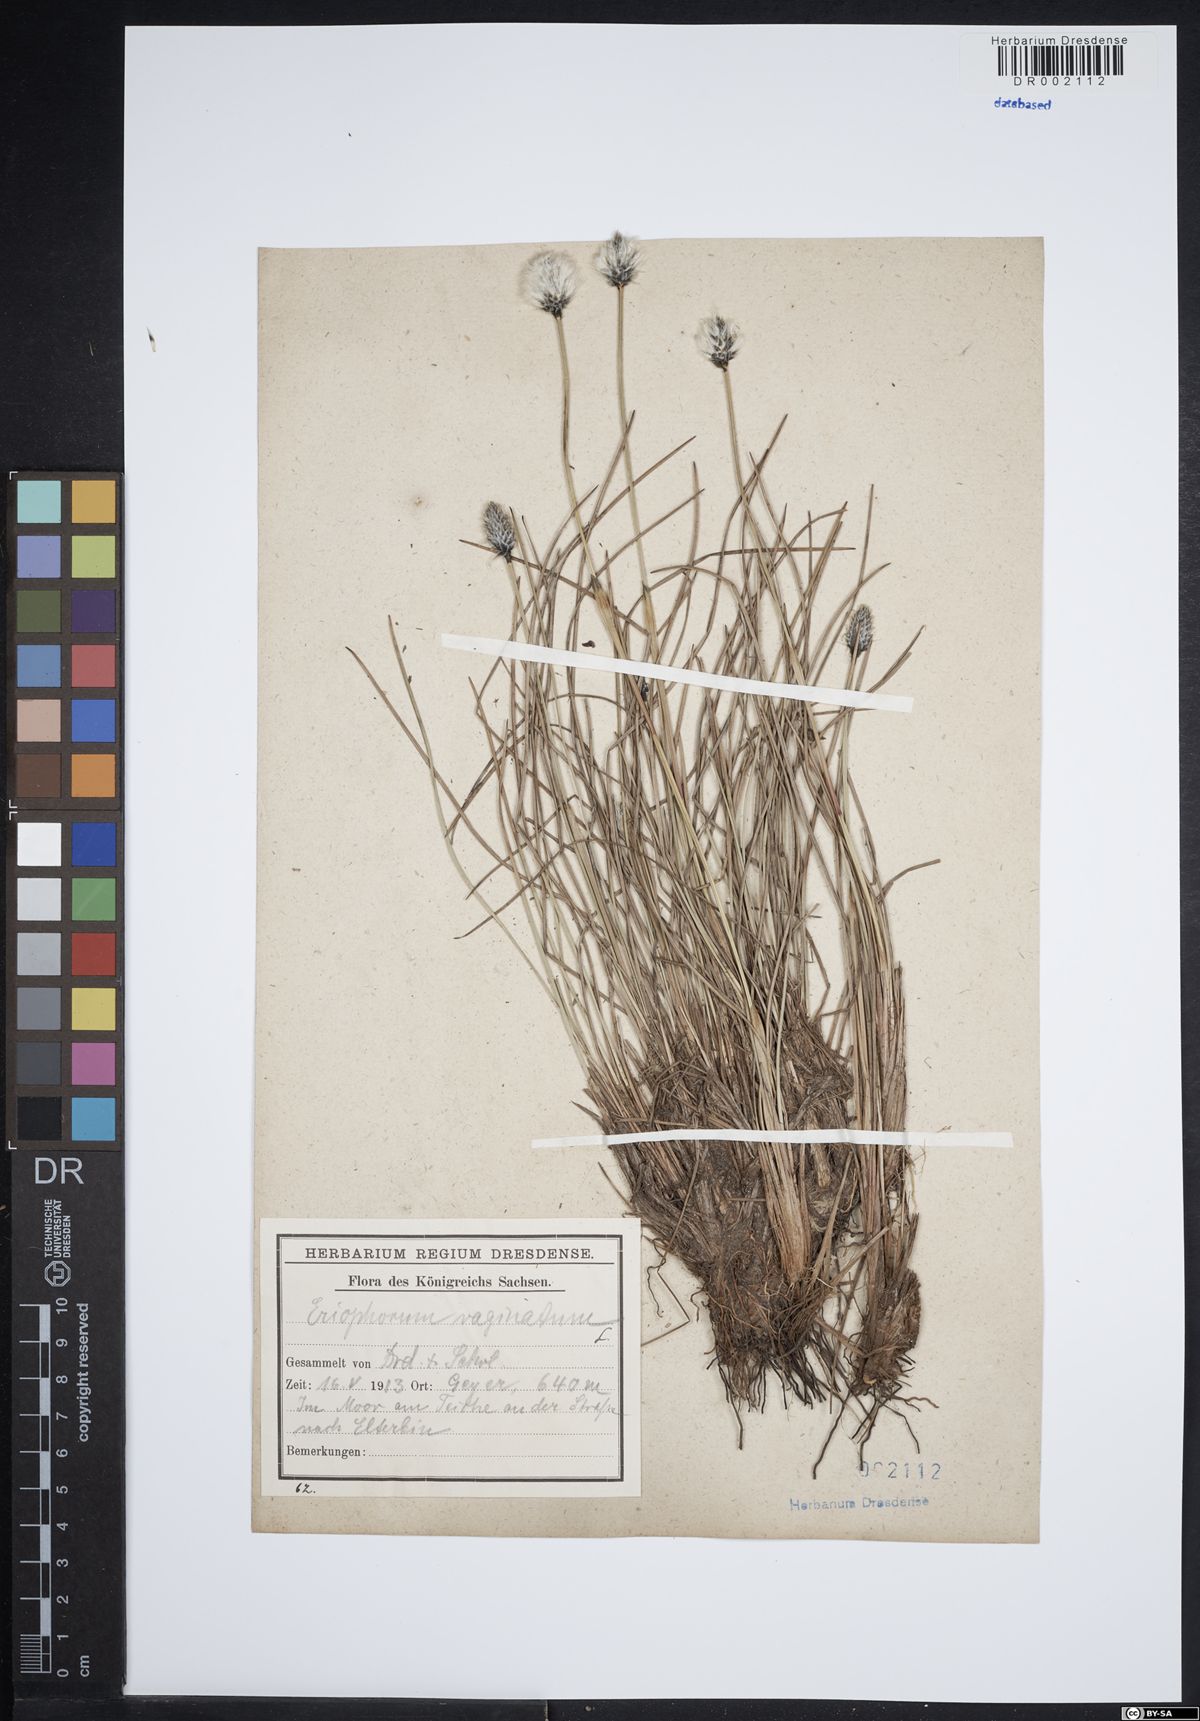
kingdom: Plantae
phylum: Tracheophyta
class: Liliopsida
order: Poales
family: Cyperaceae
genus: Eriophorum
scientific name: Eriophorum vaginatum
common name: Hare's-tail cottongrass
